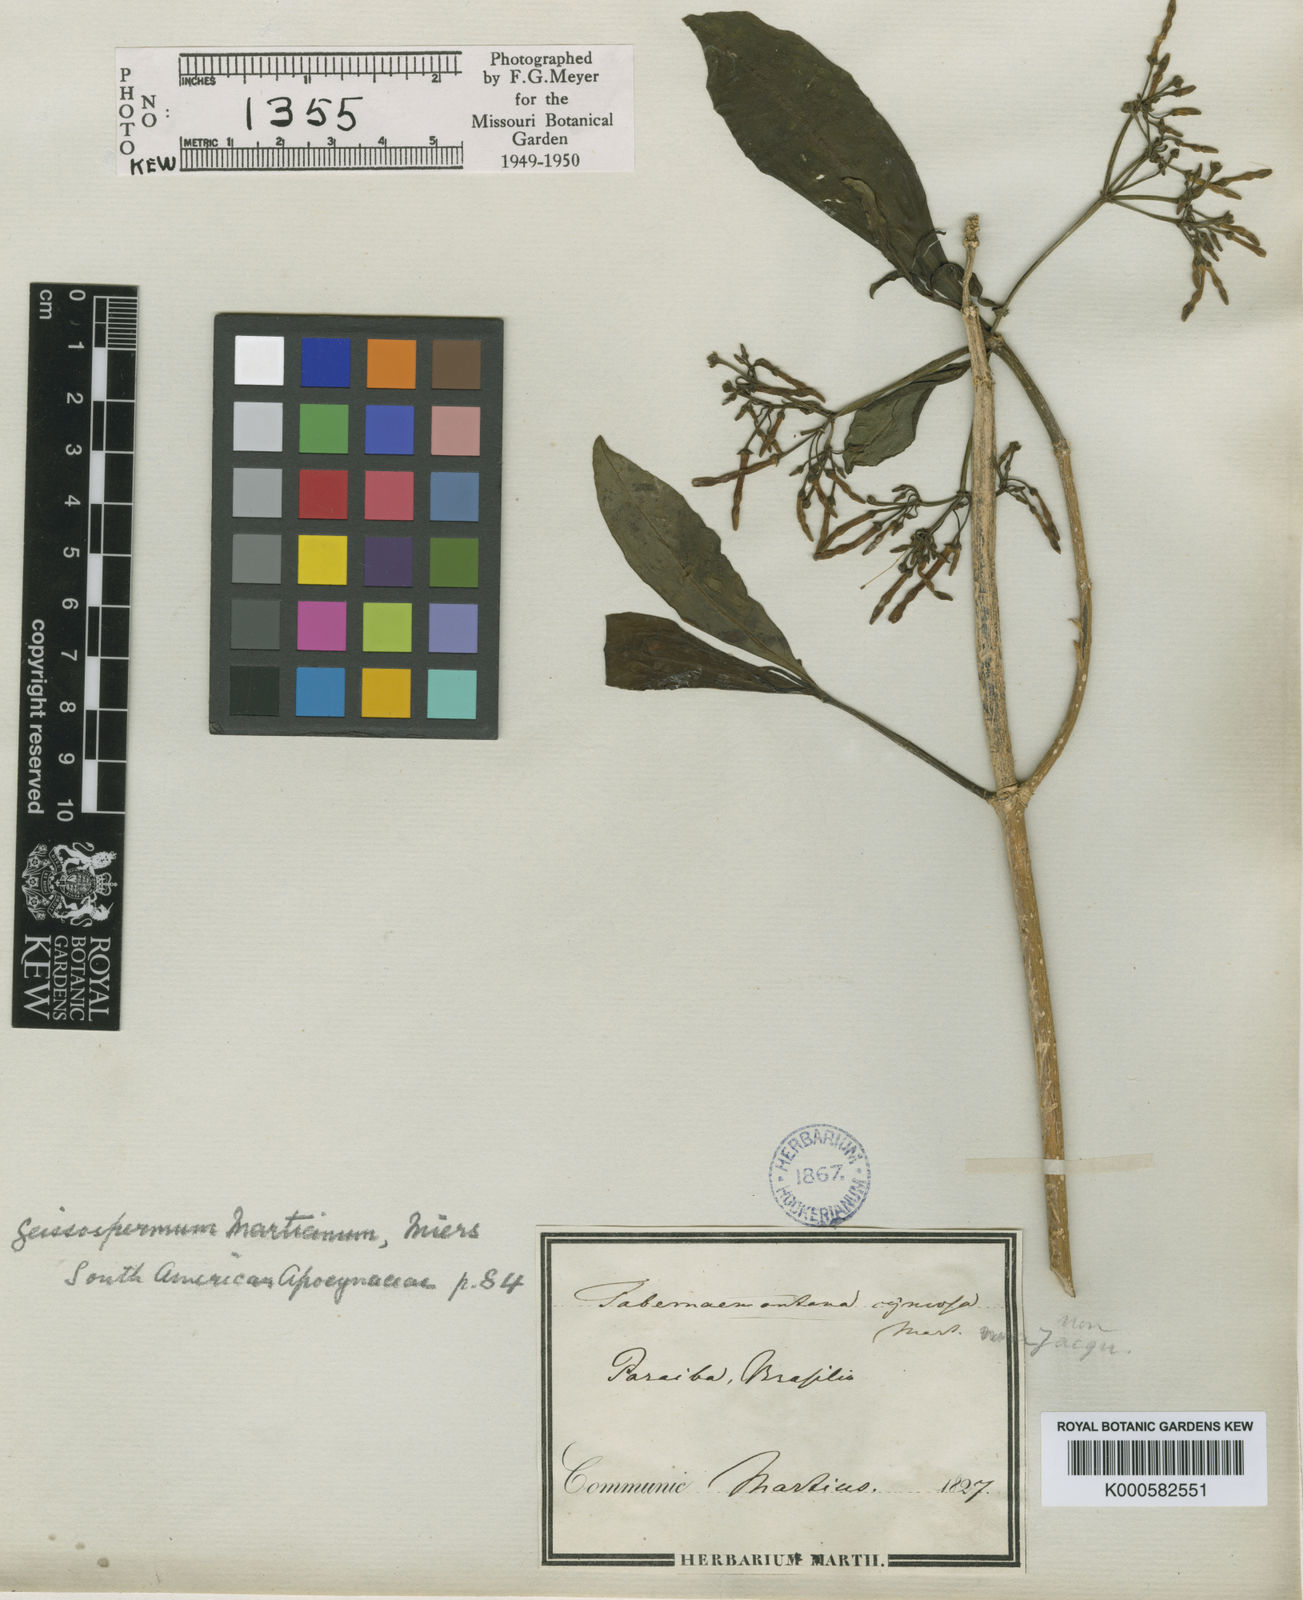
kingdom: Plantae
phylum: Tracheophyta
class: Magnoliopsida
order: Gentianales
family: Apocynaceae
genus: Geissospermum
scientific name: Geissospermum laeve
